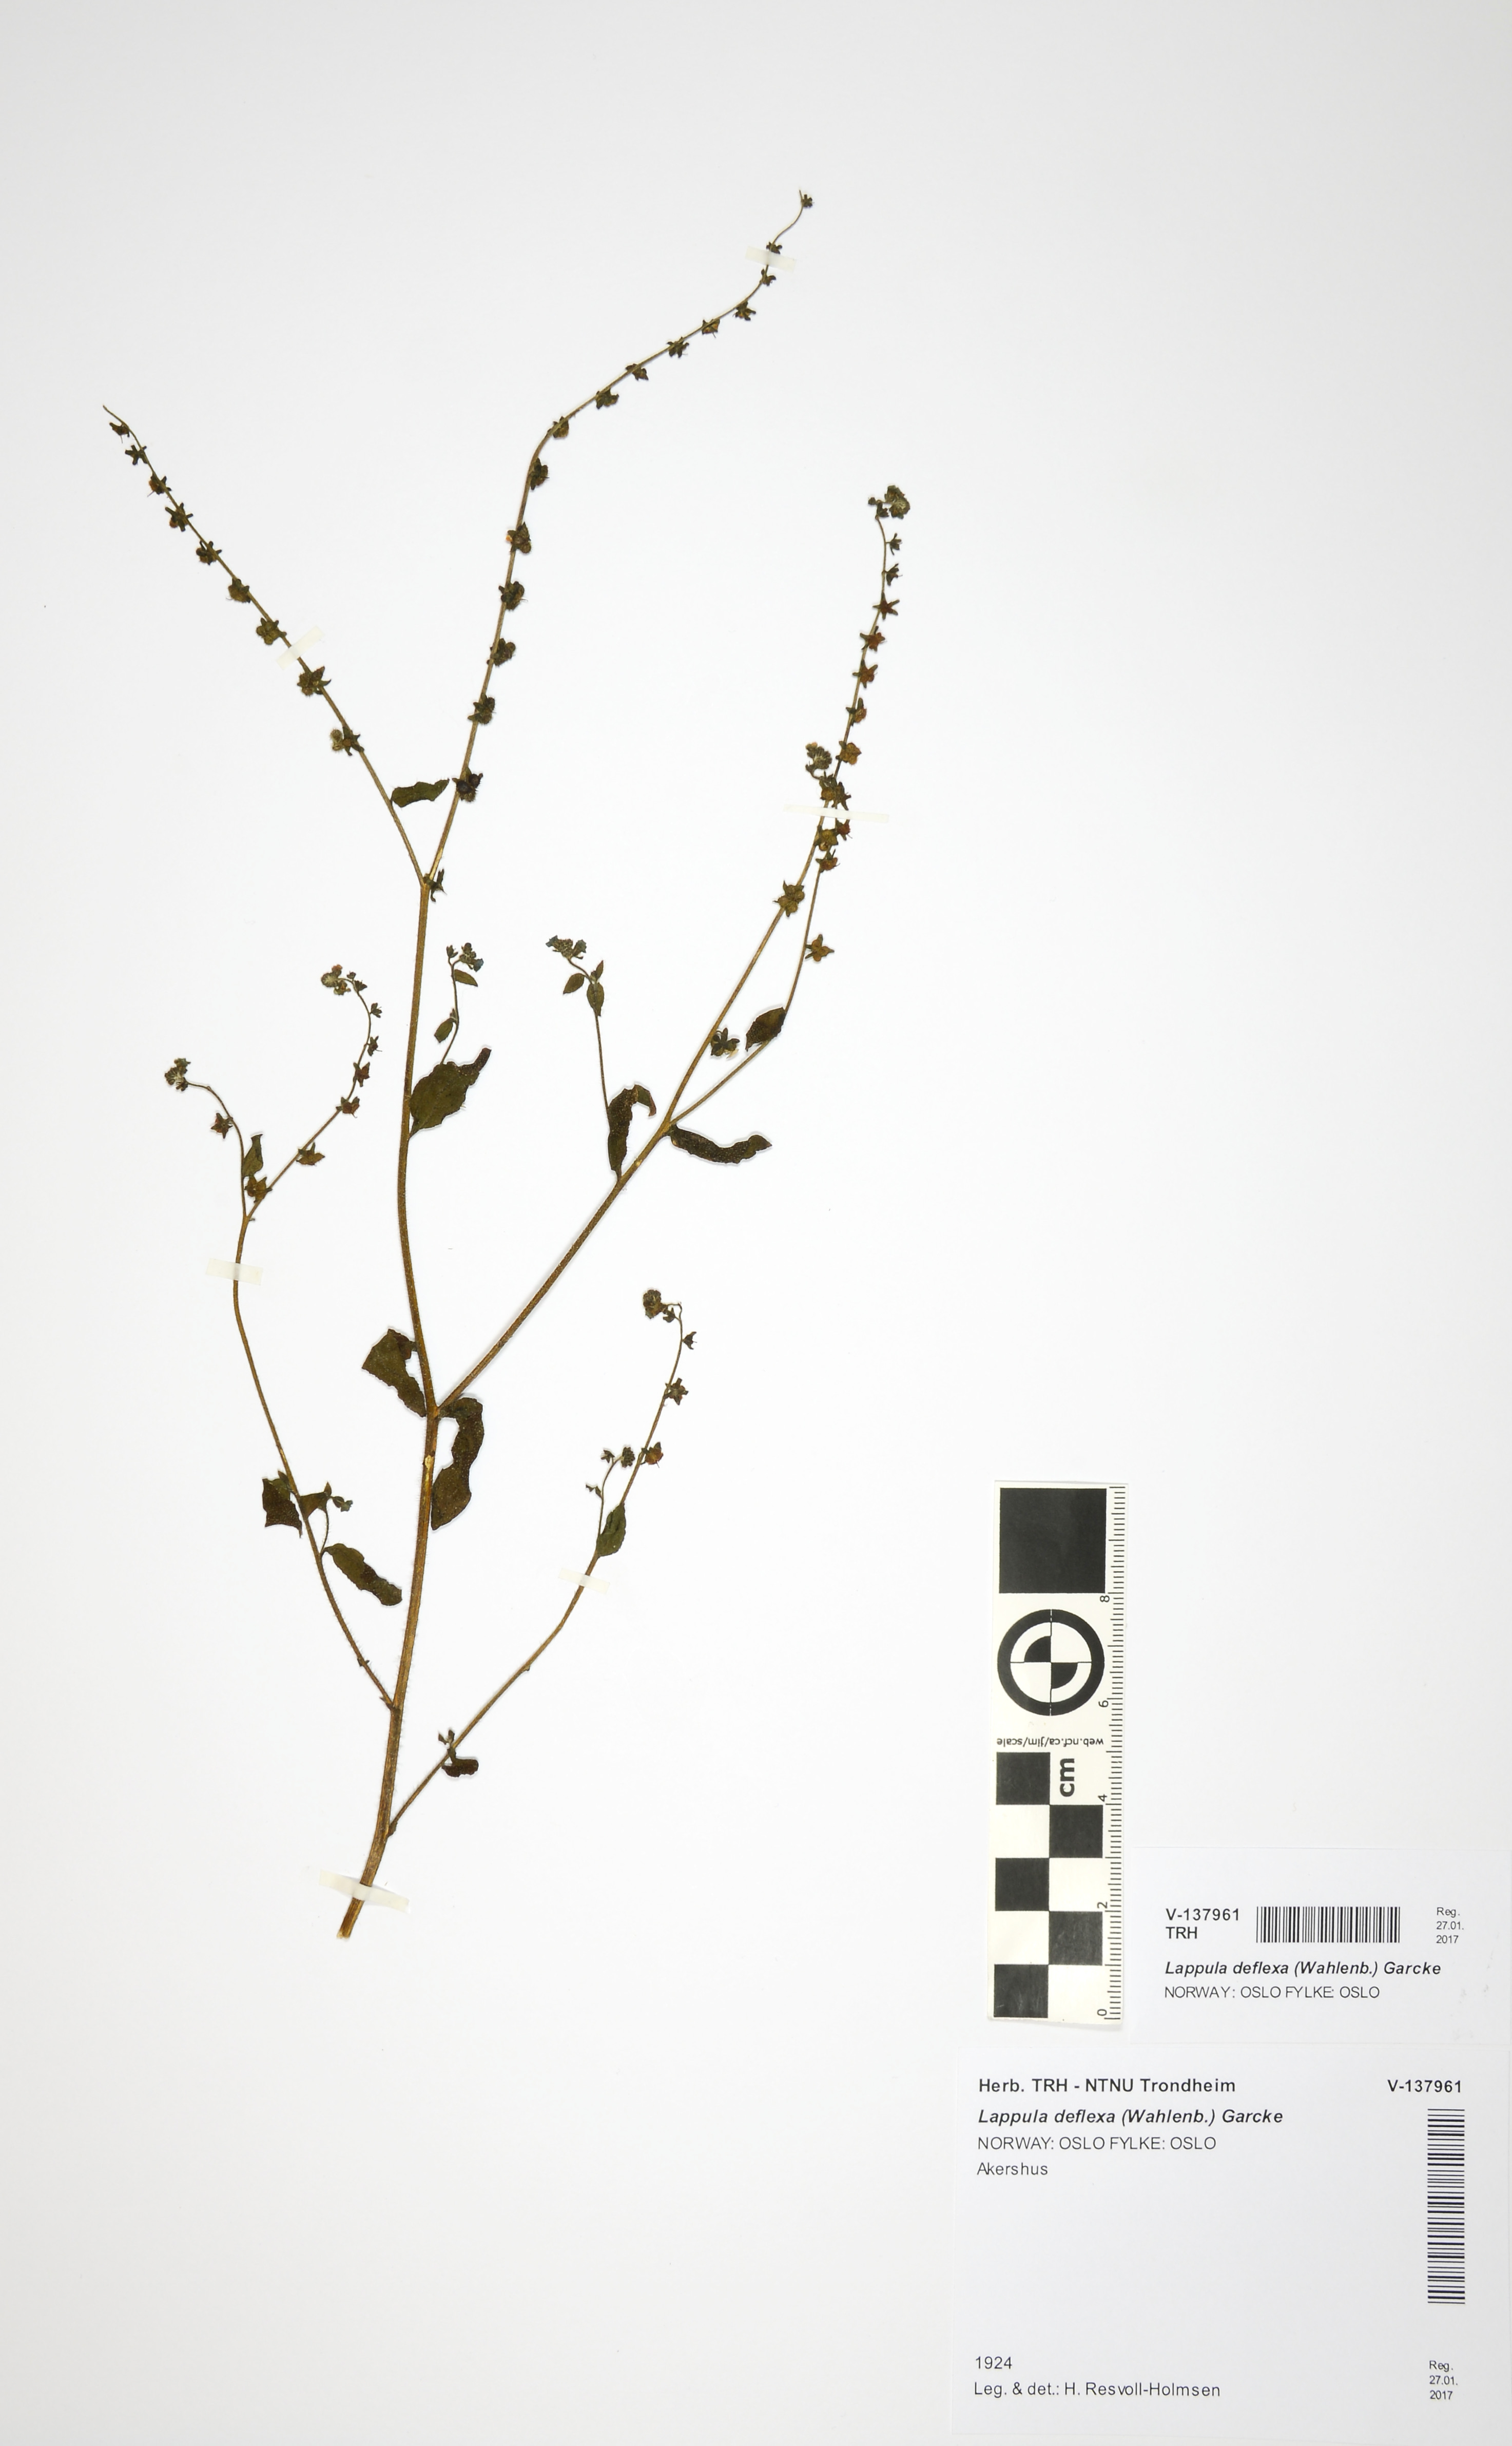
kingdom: Plantae
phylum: Tracheophyta
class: Magnoliopsida
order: Boraginales
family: Boraginaceae
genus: Hackelia
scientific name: Hackelia deflexa
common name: Nodding stickseed
